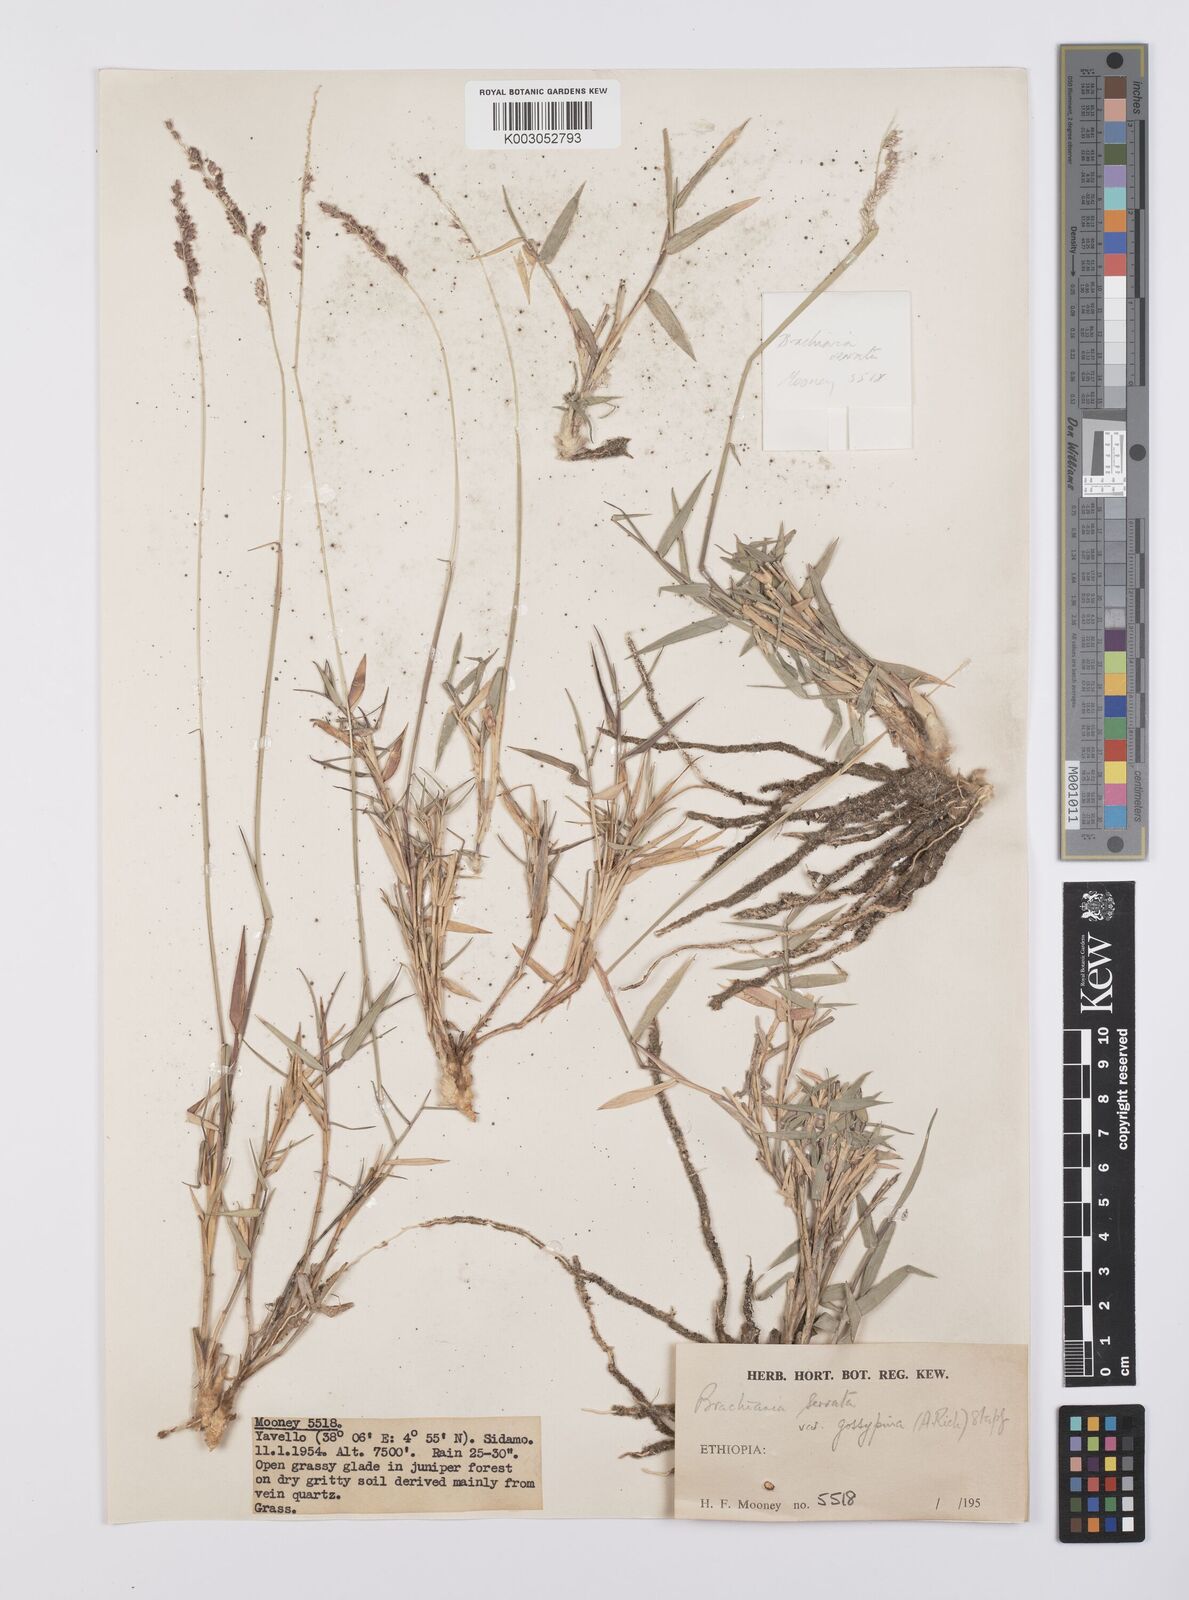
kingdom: Plantae
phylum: Tracheophyta
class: Liliopsida
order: Poales
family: Poaceae
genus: Urochloa
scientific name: Urochloa serrata
